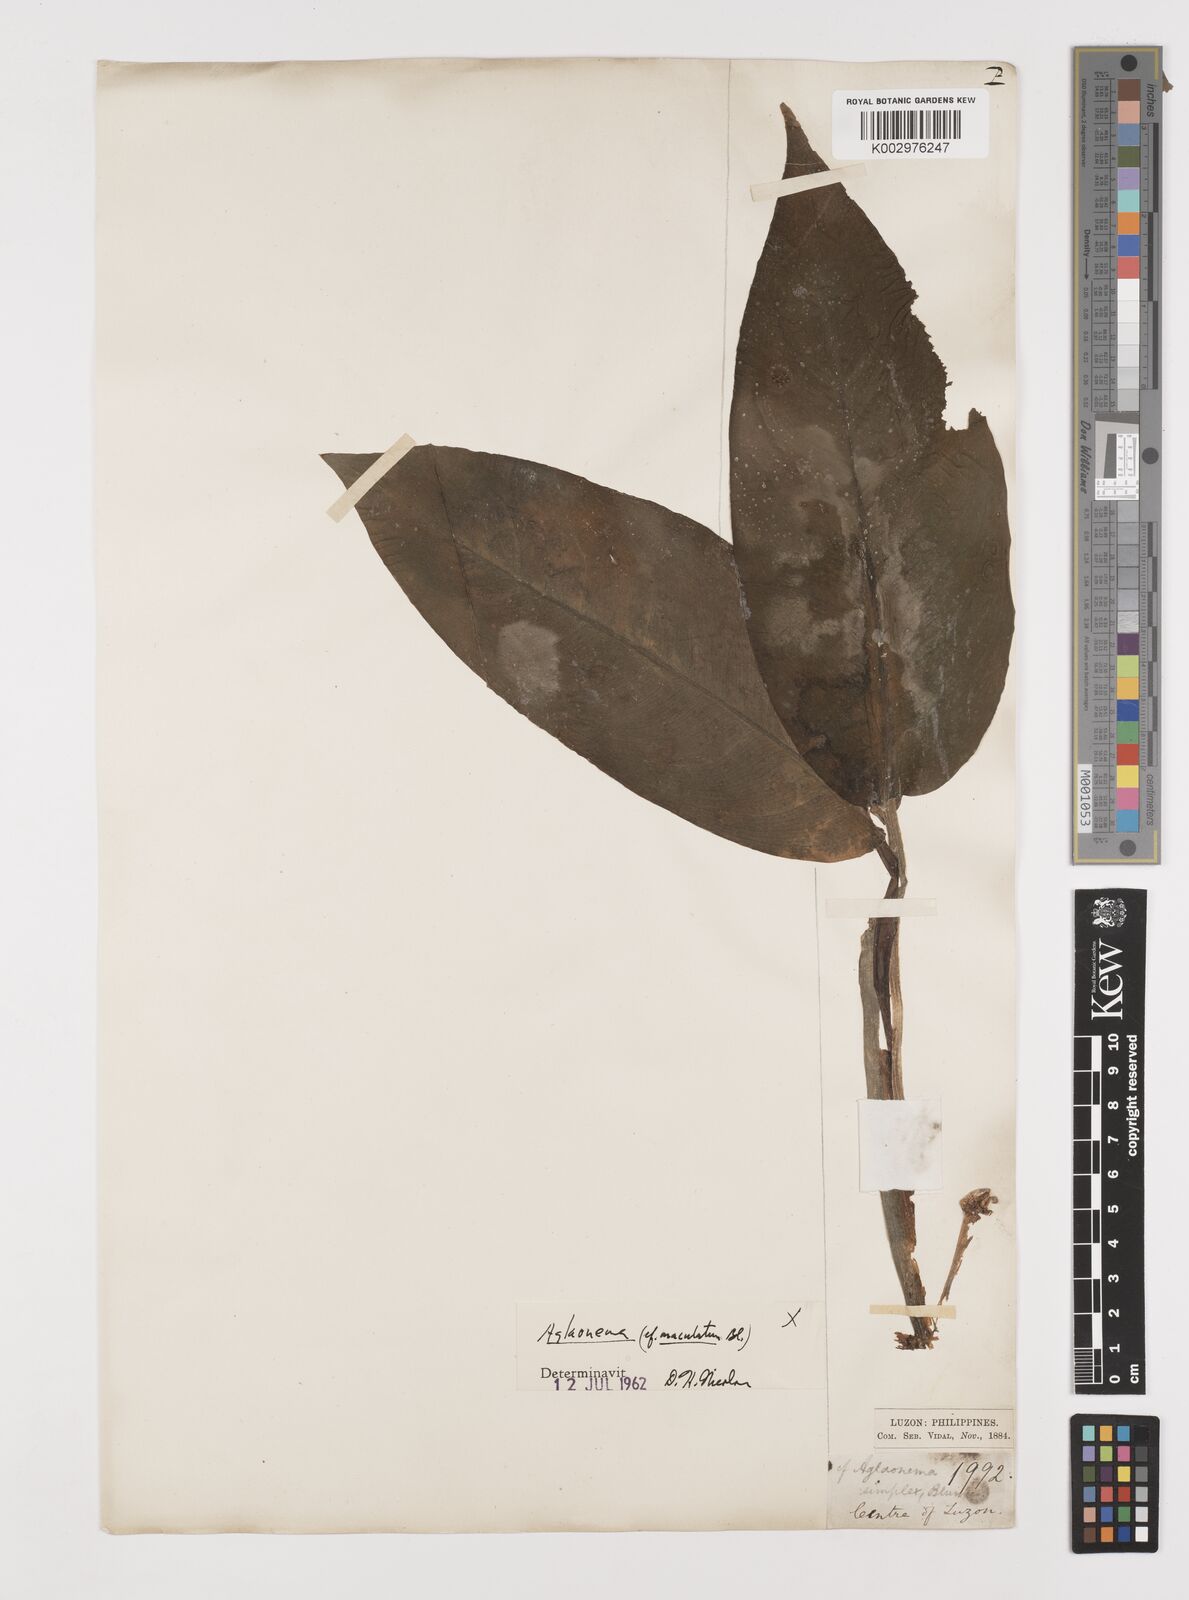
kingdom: Plantae
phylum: Tracheophyta
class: Liliopsida
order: Alismatales
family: Araceae
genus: Aglaonema
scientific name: Aglaonema commutatum
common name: Philippine evergreen
